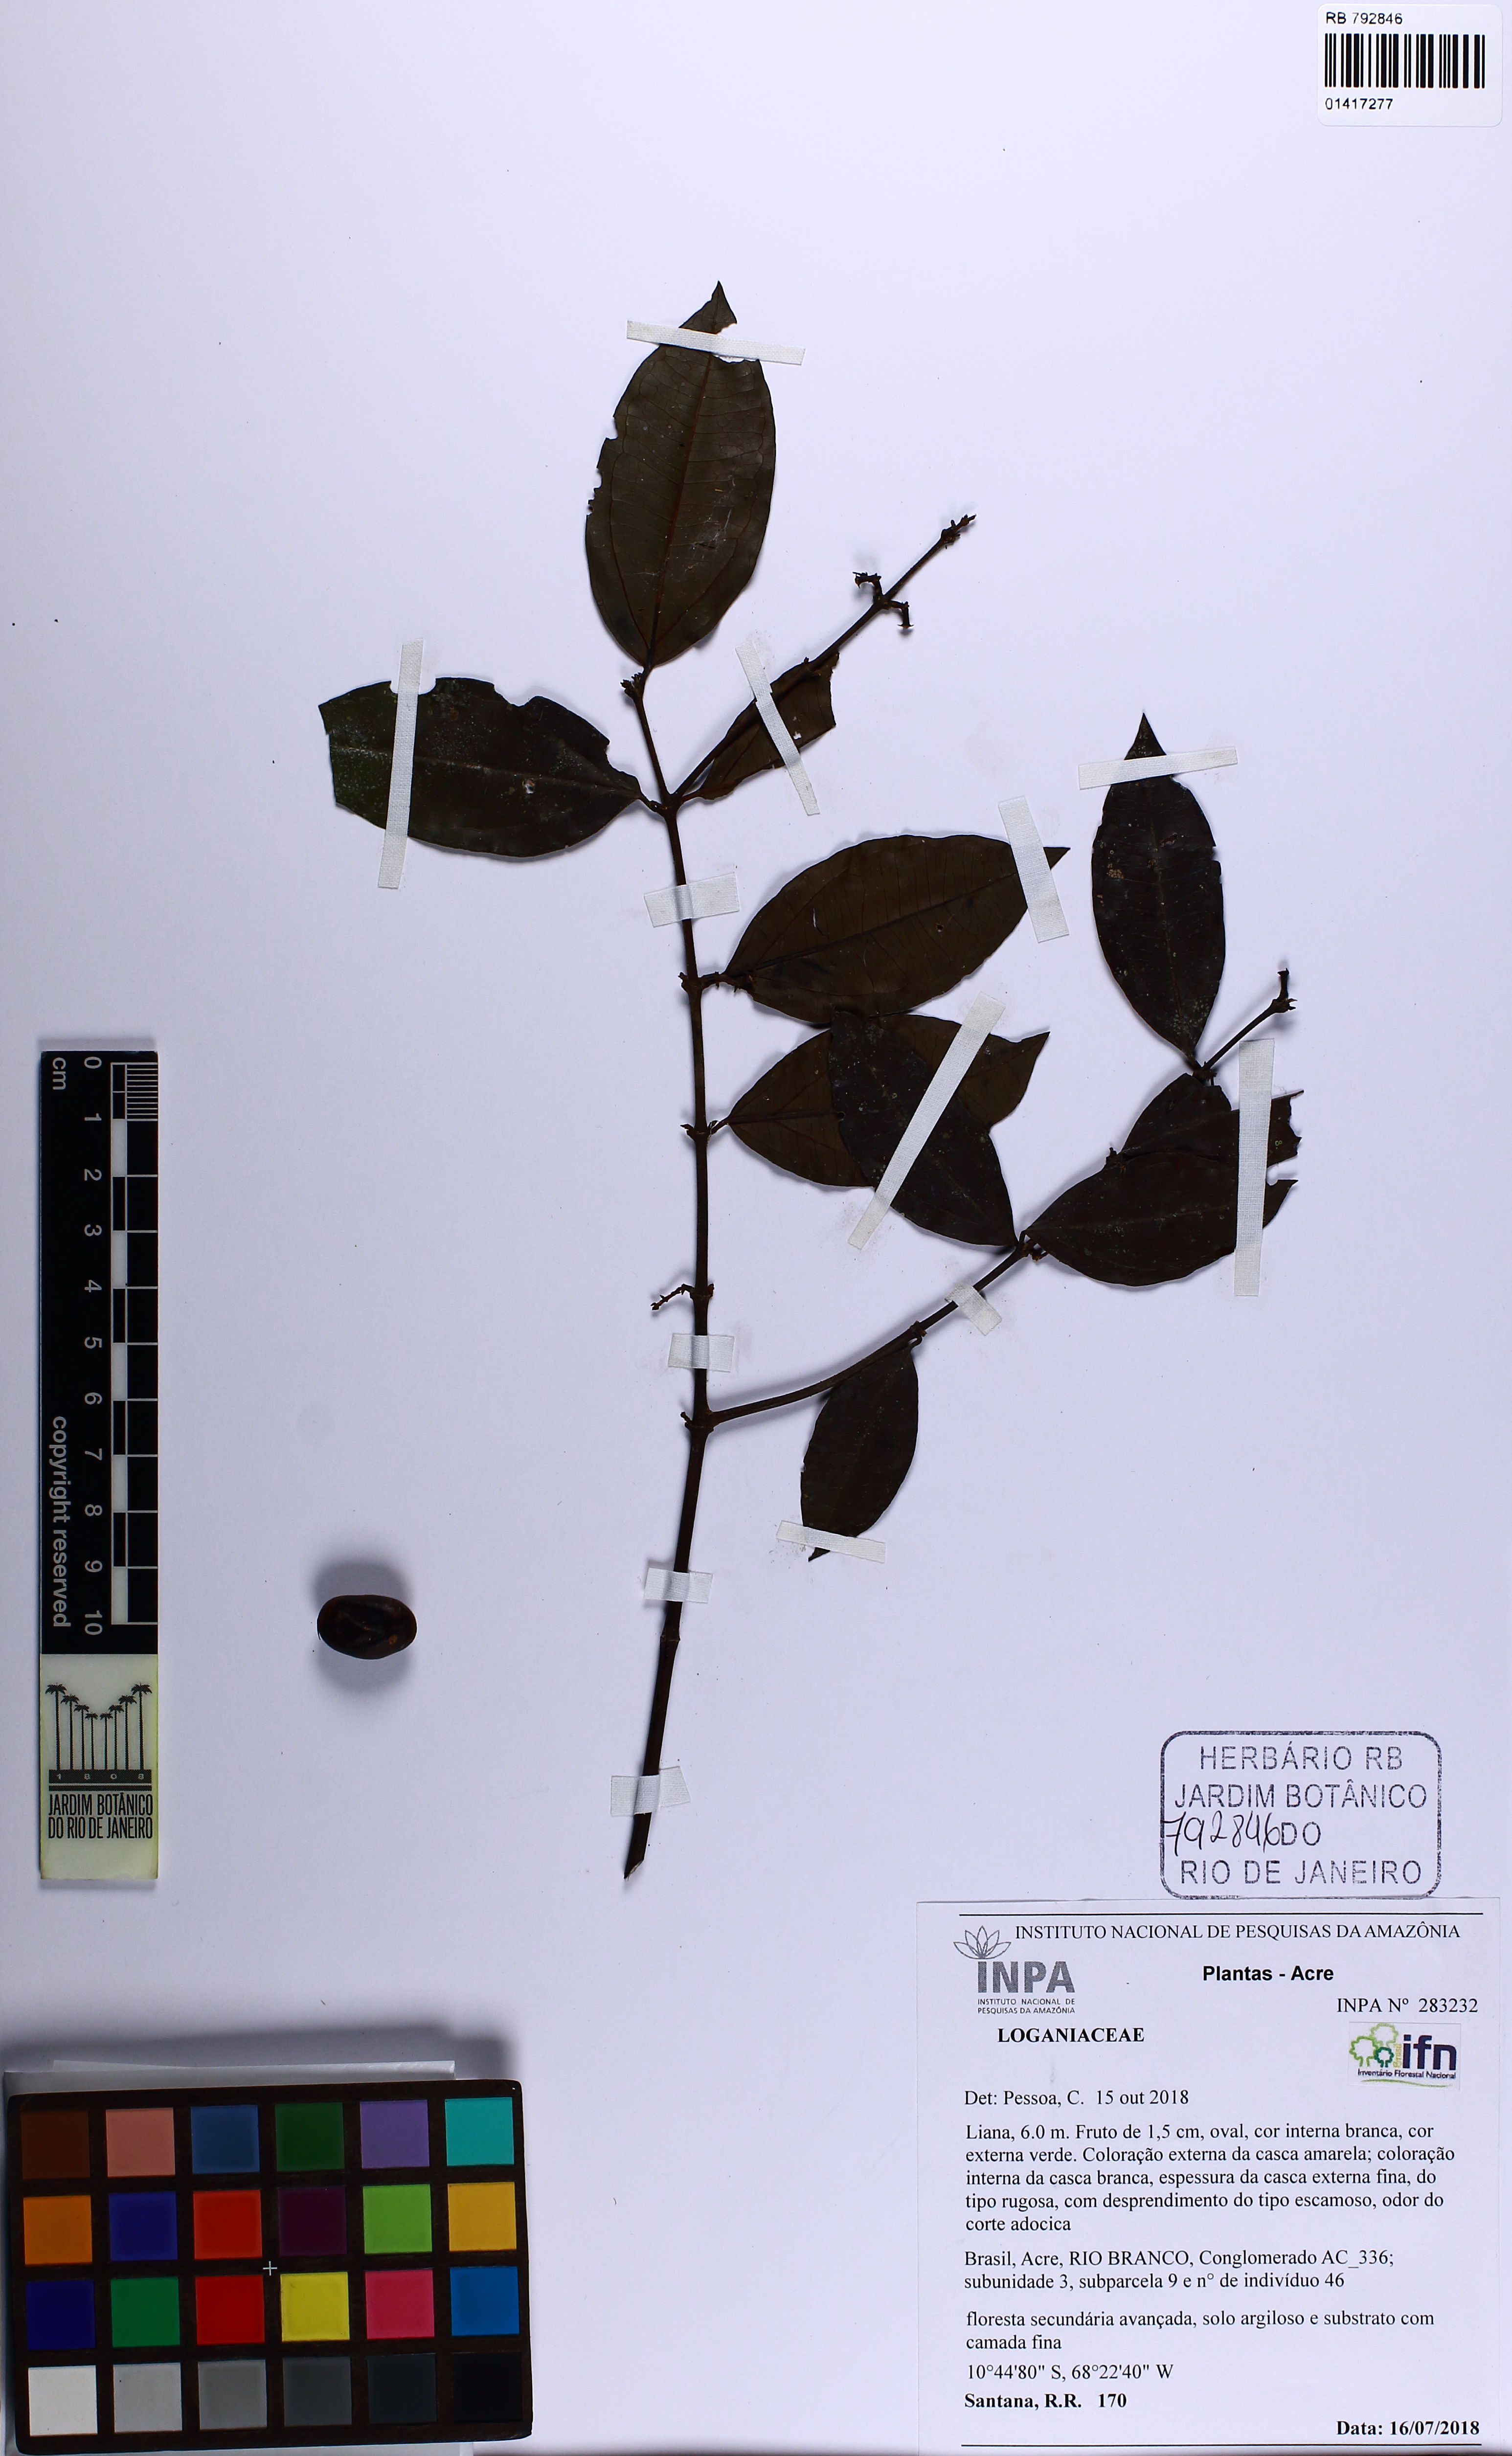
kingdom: Plantae
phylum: Tracheophyta
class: Magnoliopsida
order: Gentianales
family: Loganiaceae
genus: Strychnos
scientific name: Strychnos guianensis
